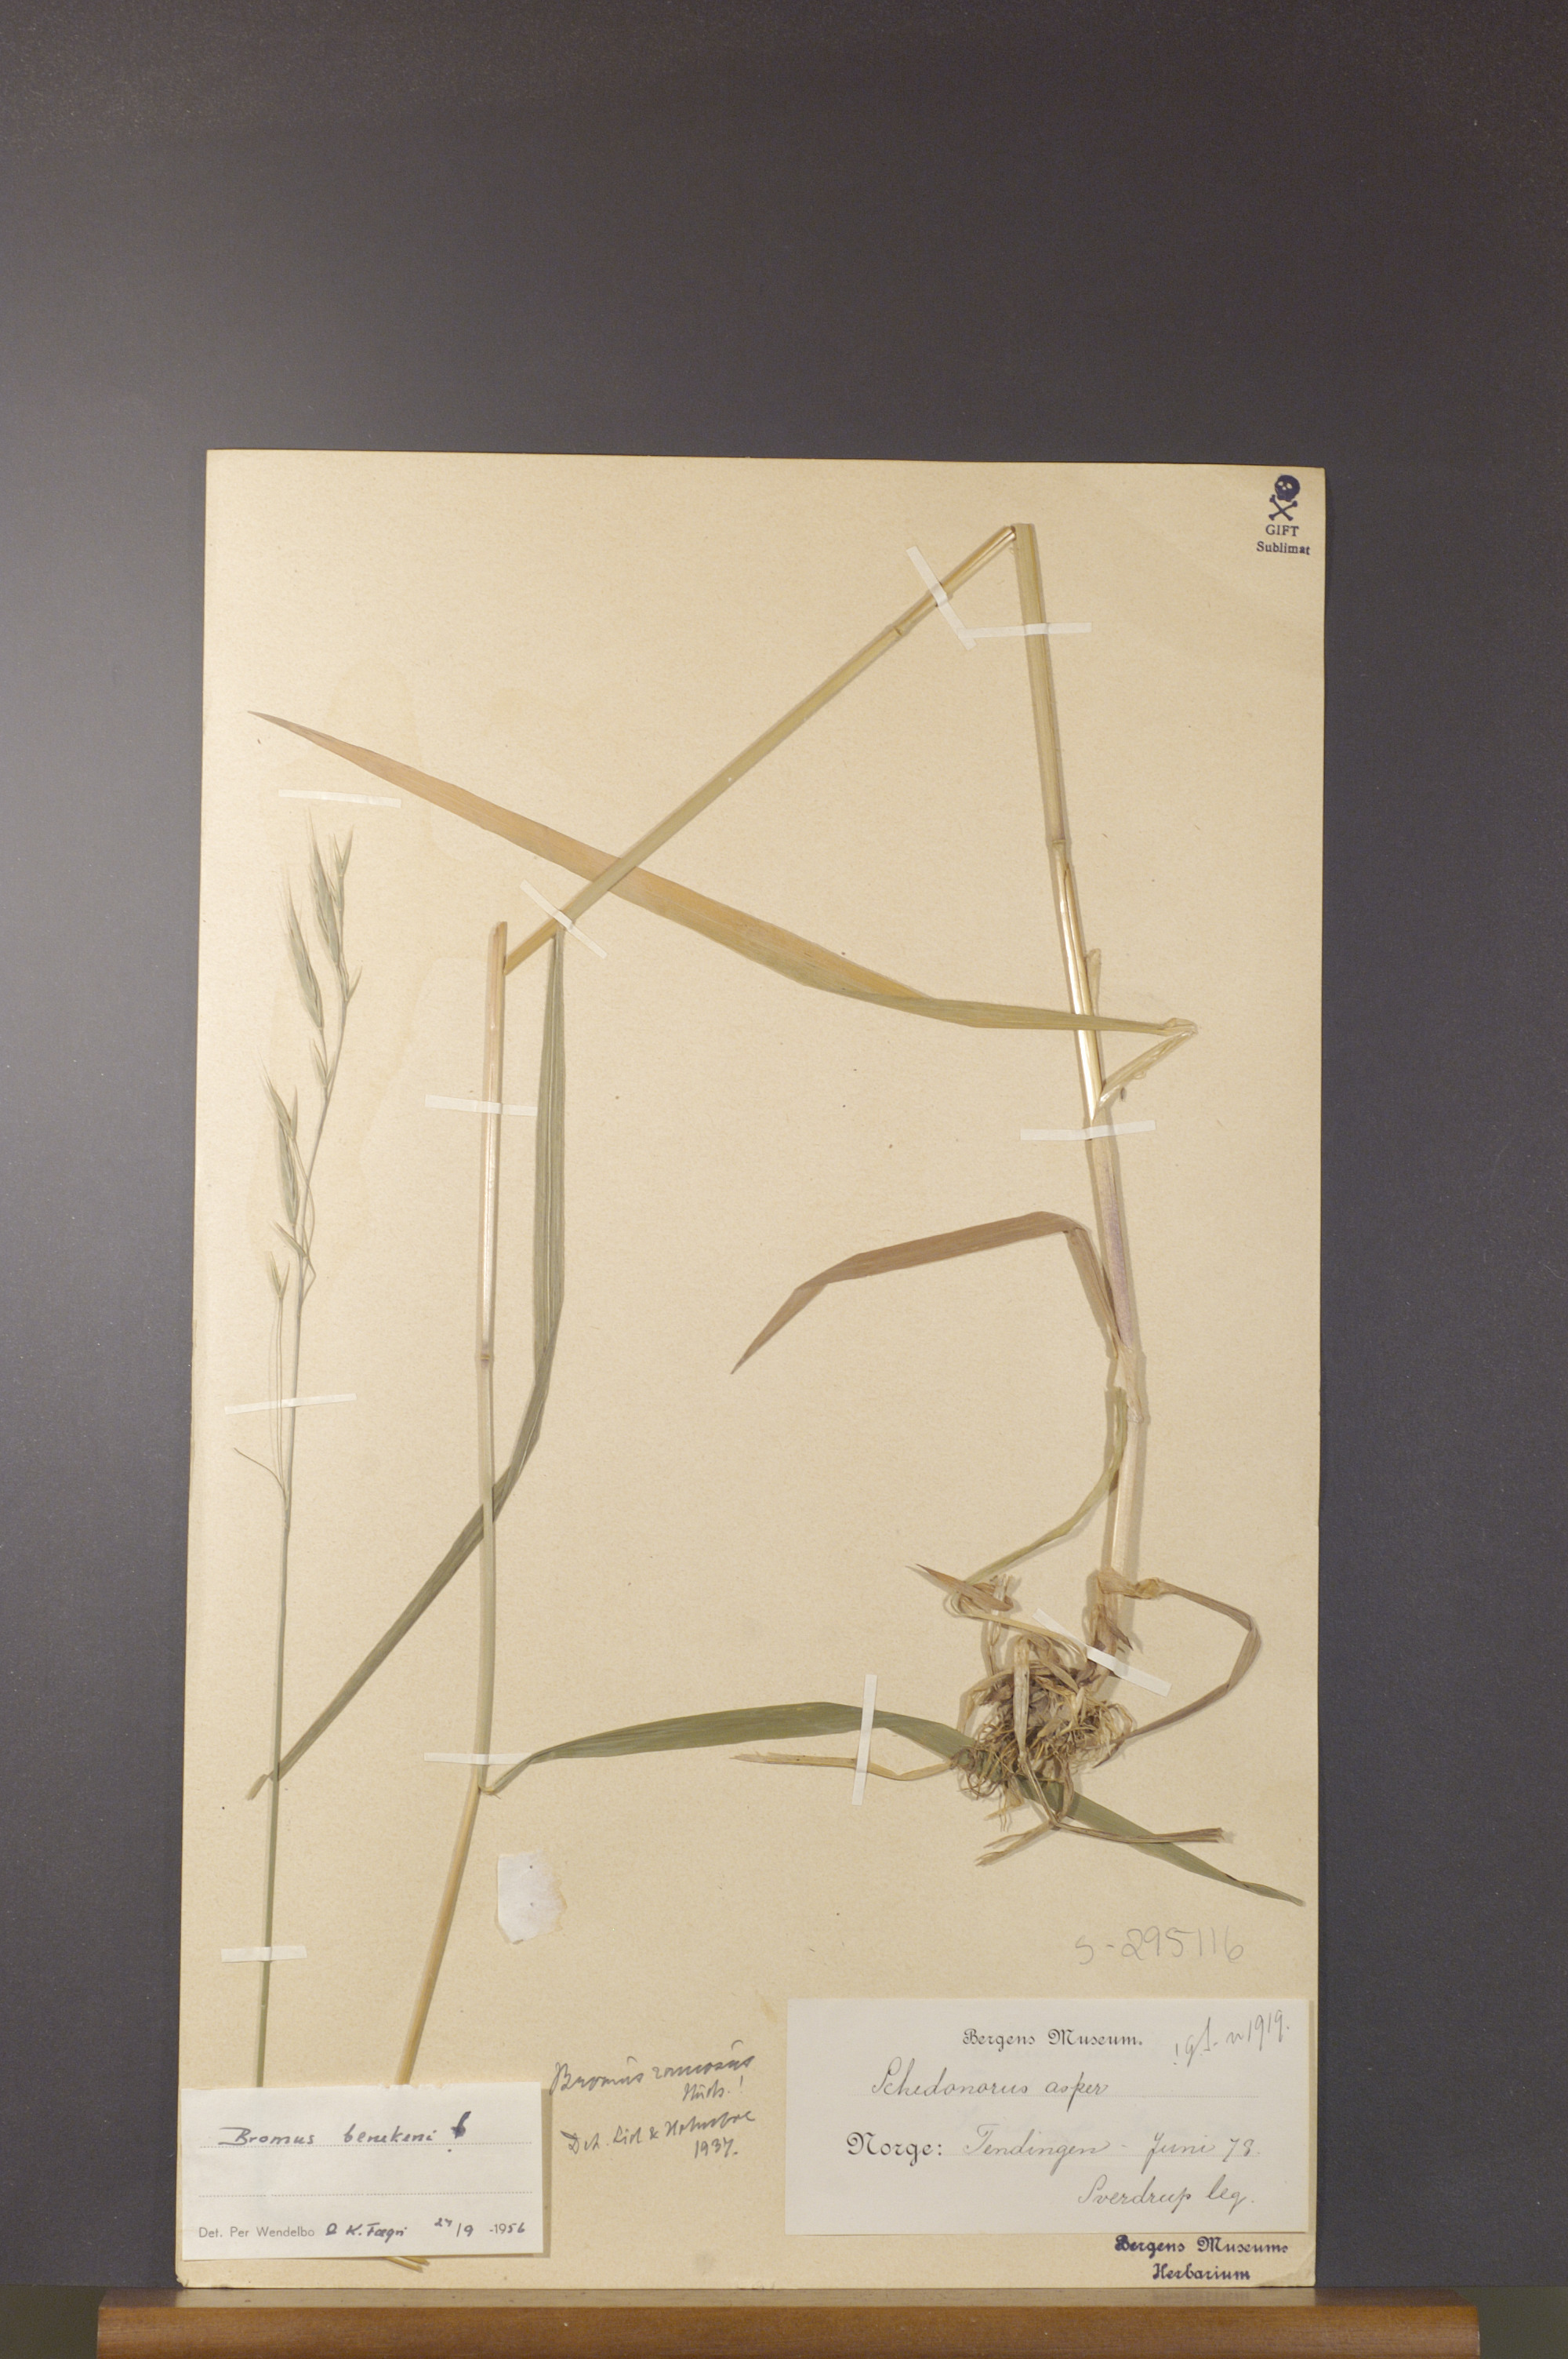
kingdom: Plantae
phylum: Tracheophyta
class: Liliopsida
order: Poales
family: Poaceae
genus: Bromus
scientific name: Bromus benekenii
